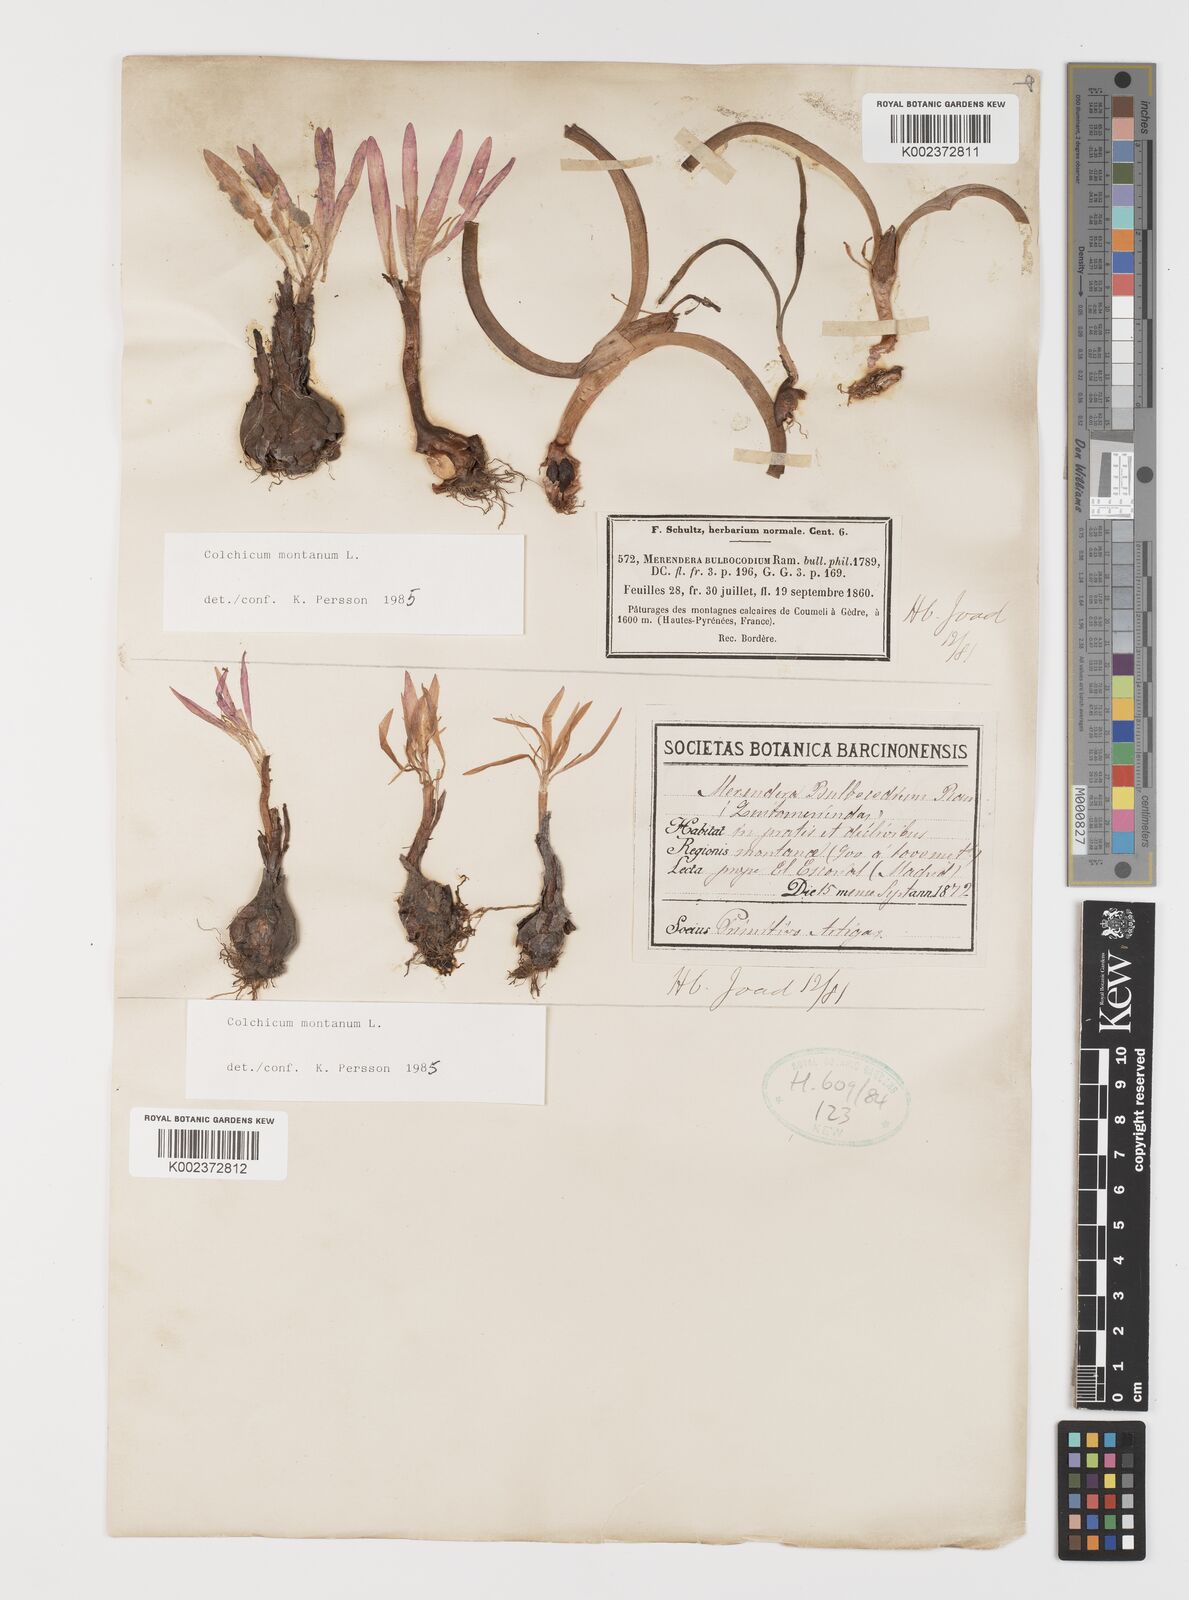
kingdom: Plantae
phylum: Tracheophyta
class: Liliopsida
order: Liliales
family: Colchicaceae
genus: Colchicum
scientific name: Colchicum montanum
